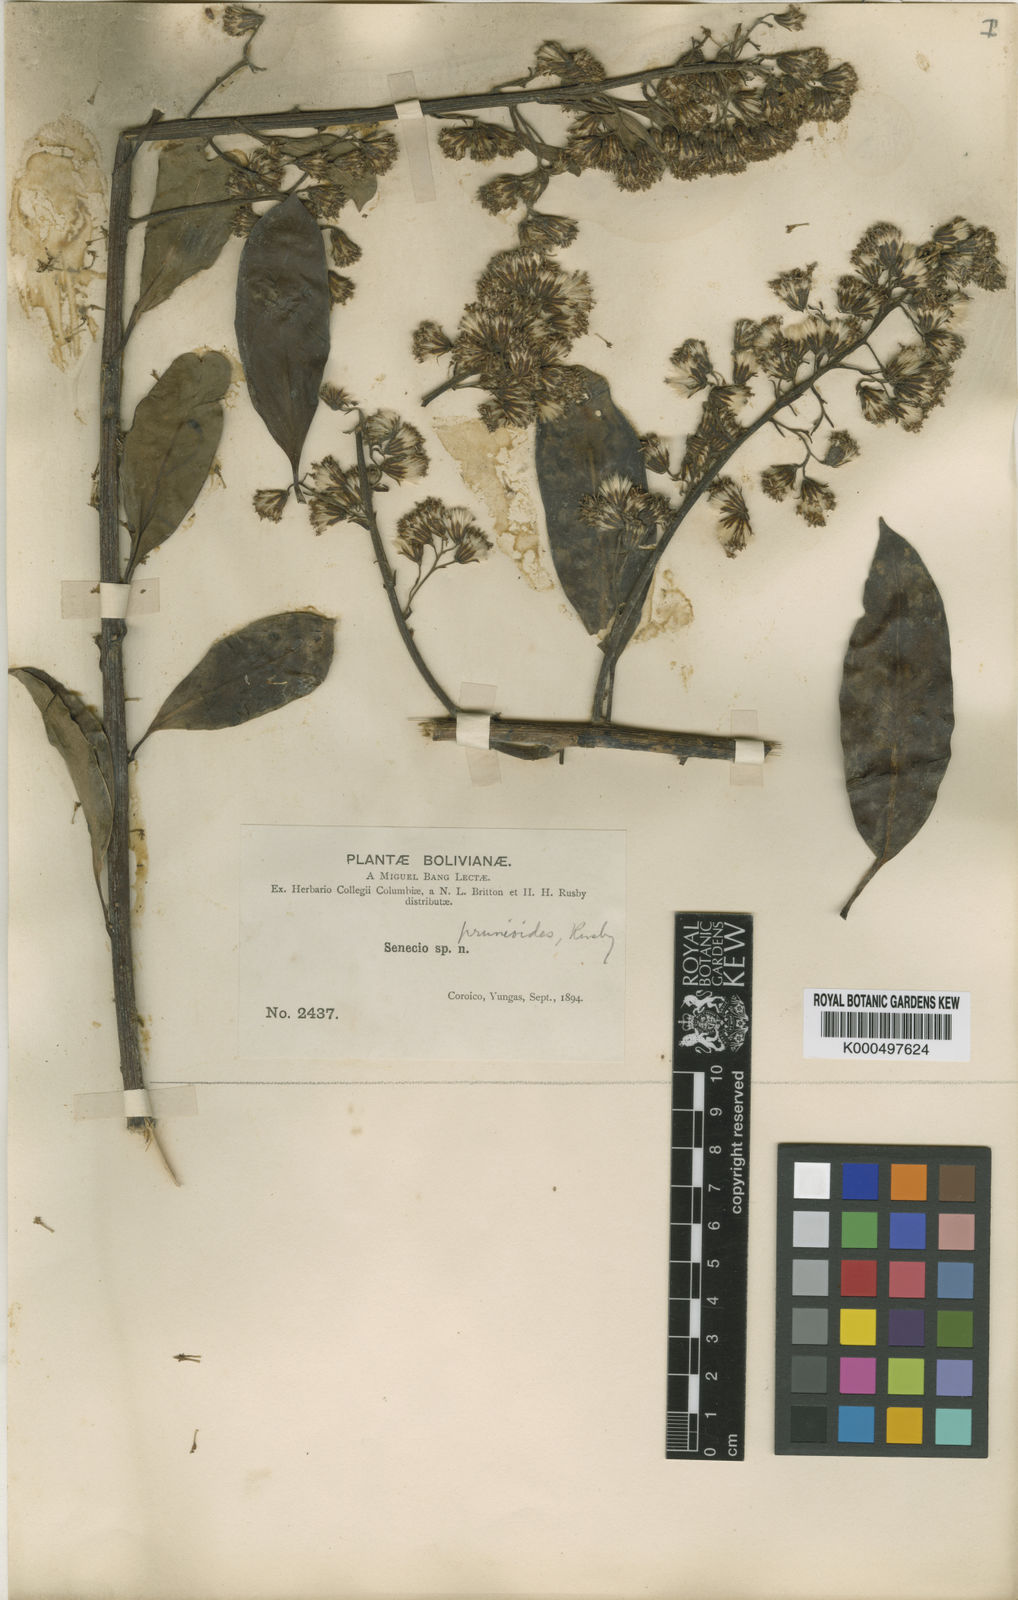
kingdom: Plantae
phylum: Tracheophyta
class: Magnoliopsida
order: Asterales
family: Asteraceae
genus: Pentacalia
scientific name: Pentacalia jelskii
